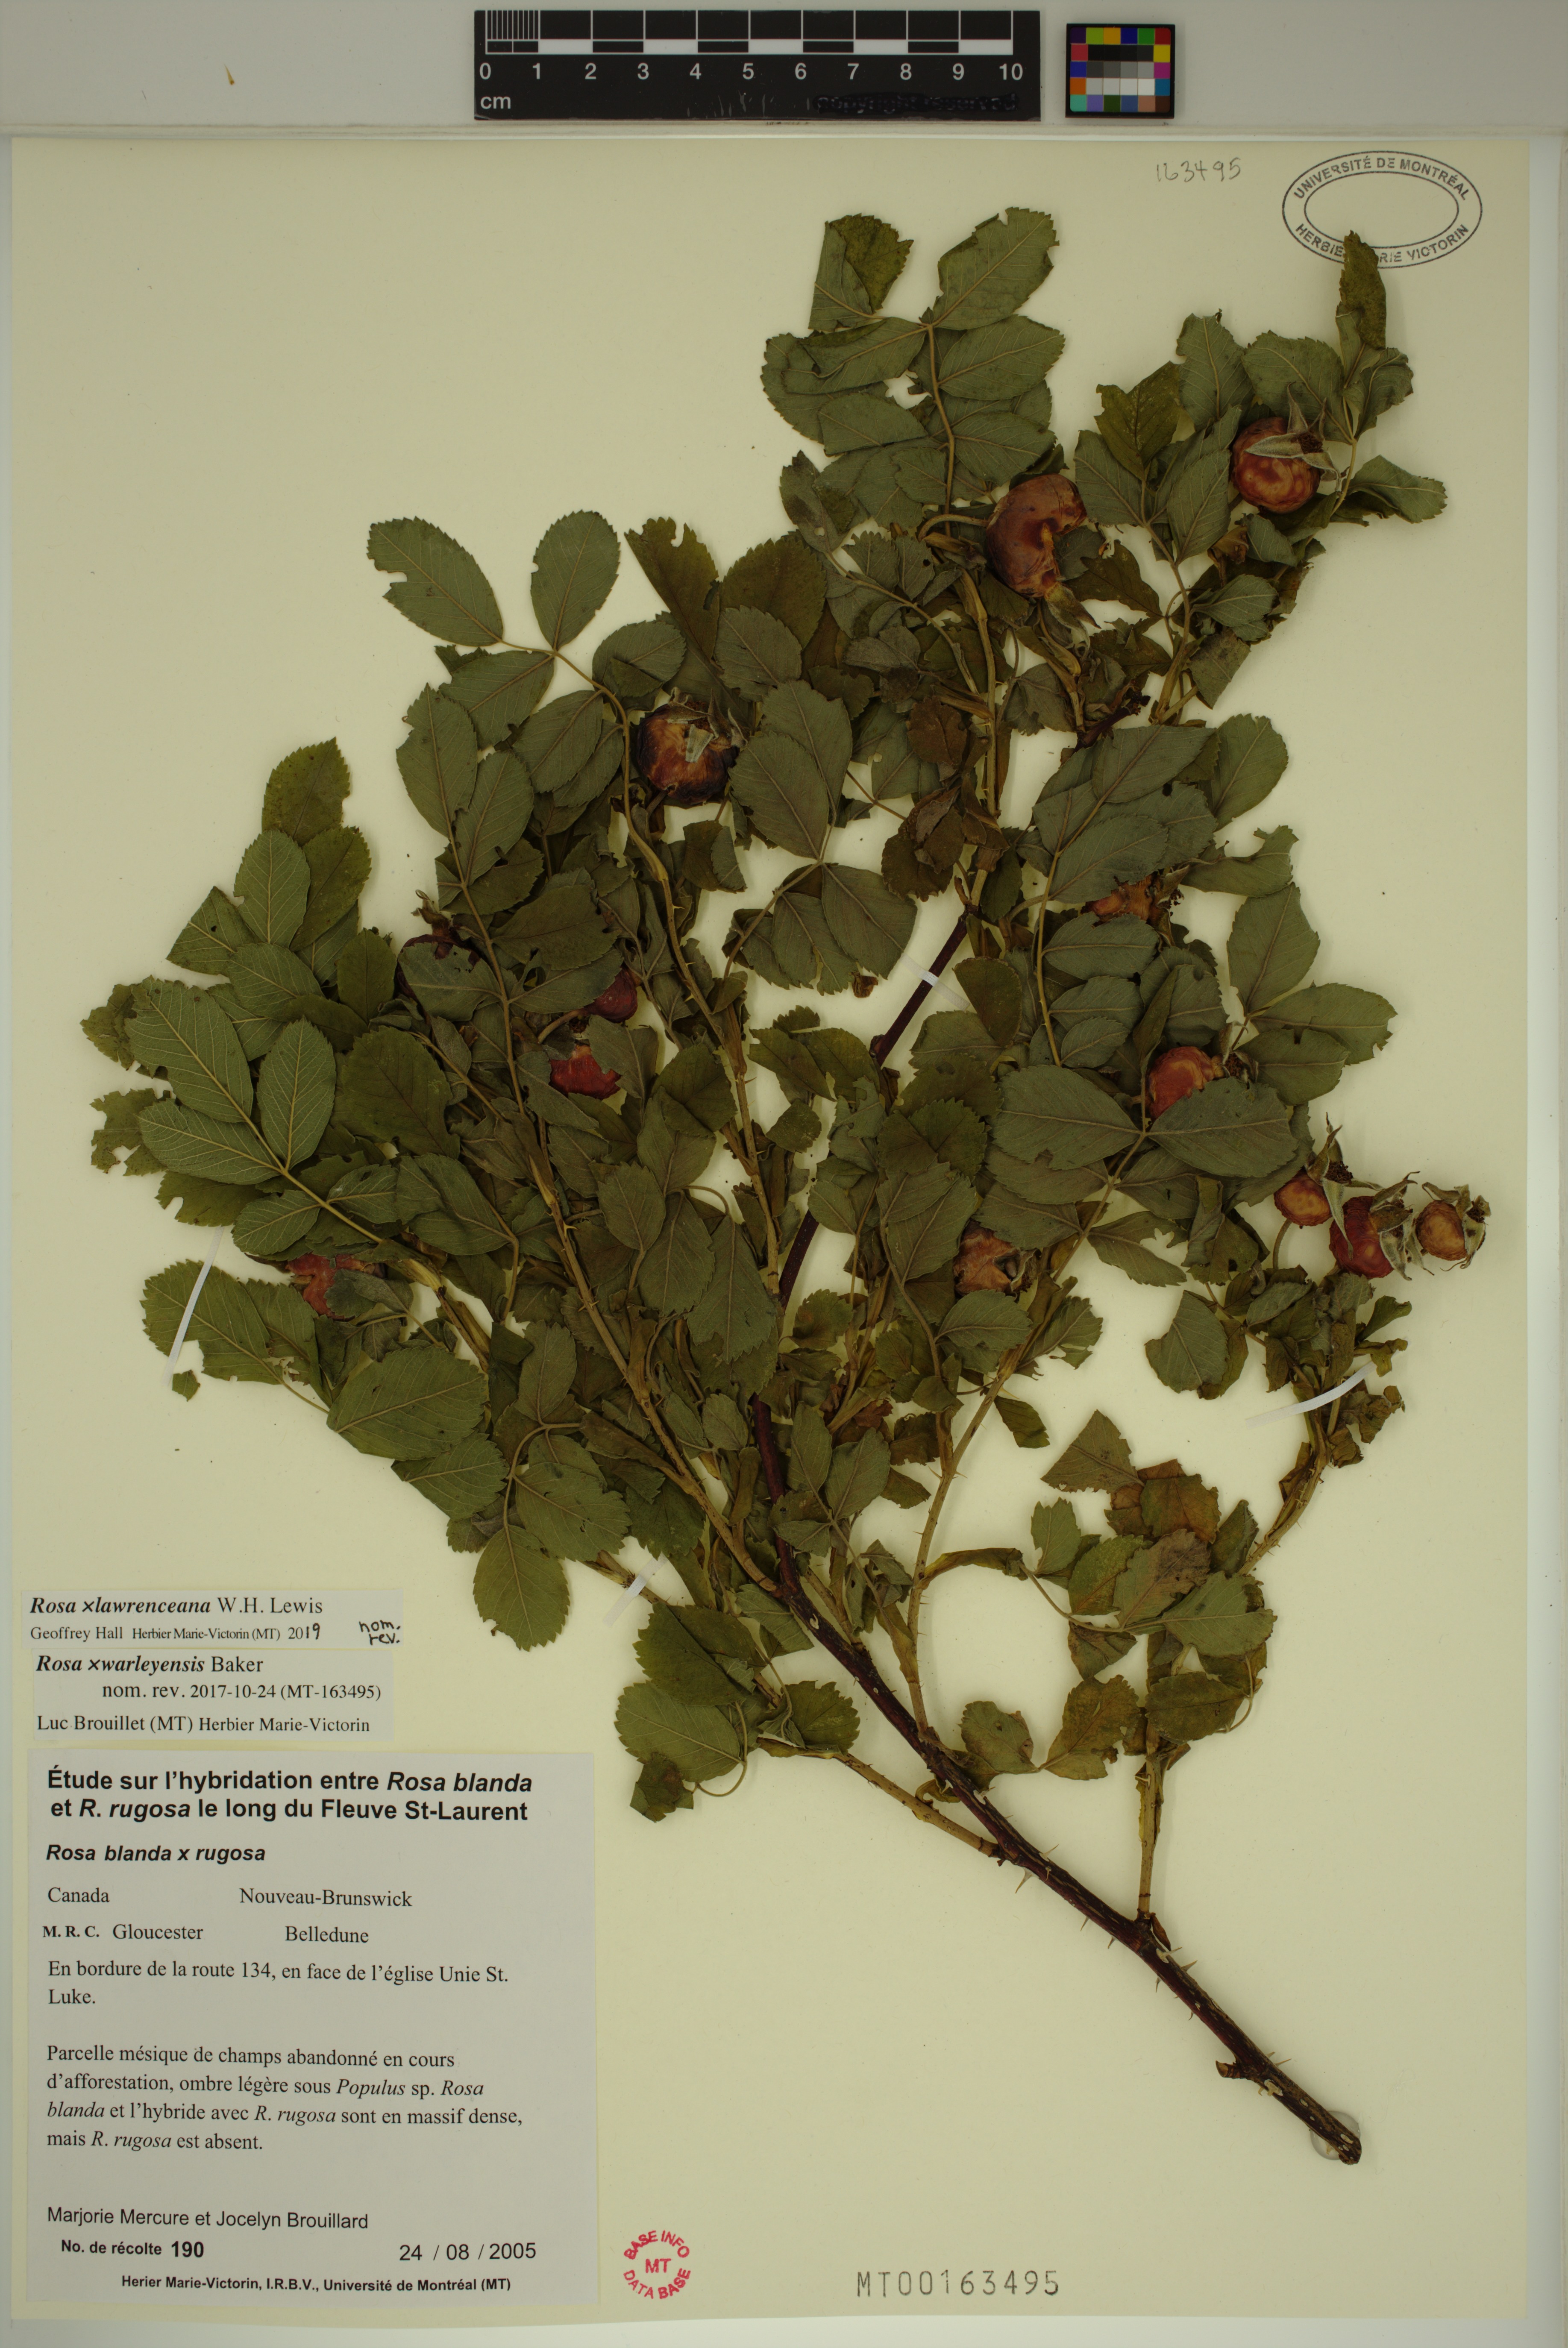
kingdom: Plantae
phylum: Tracheophyta
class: Magnoliopsida
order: Rosales
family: Rosaceae
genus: Rosa
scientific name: Rosa chinensis
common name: China rose
